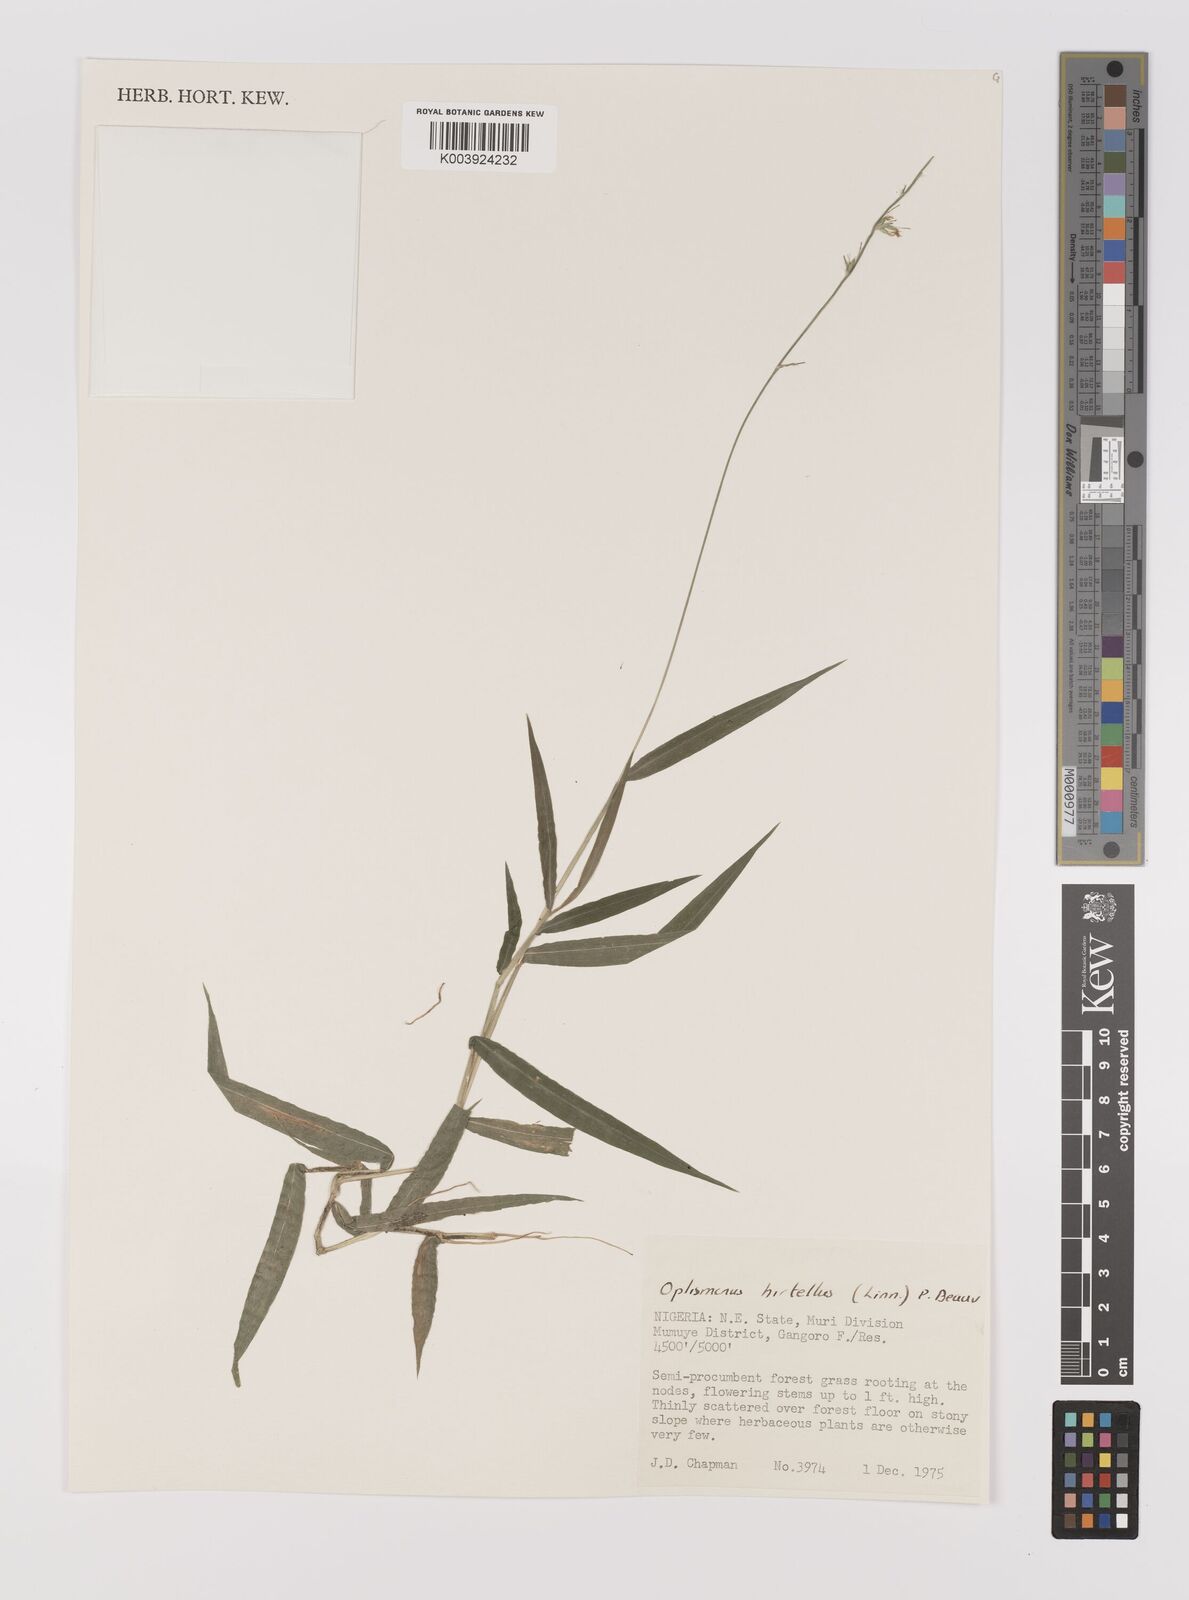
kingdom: Plantae
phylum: Tracheophyta
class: Liliopsida
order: Poales
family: Poaceae
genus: Oplismenus
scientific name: Oplismenus hirtellus
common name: Basketgrass
